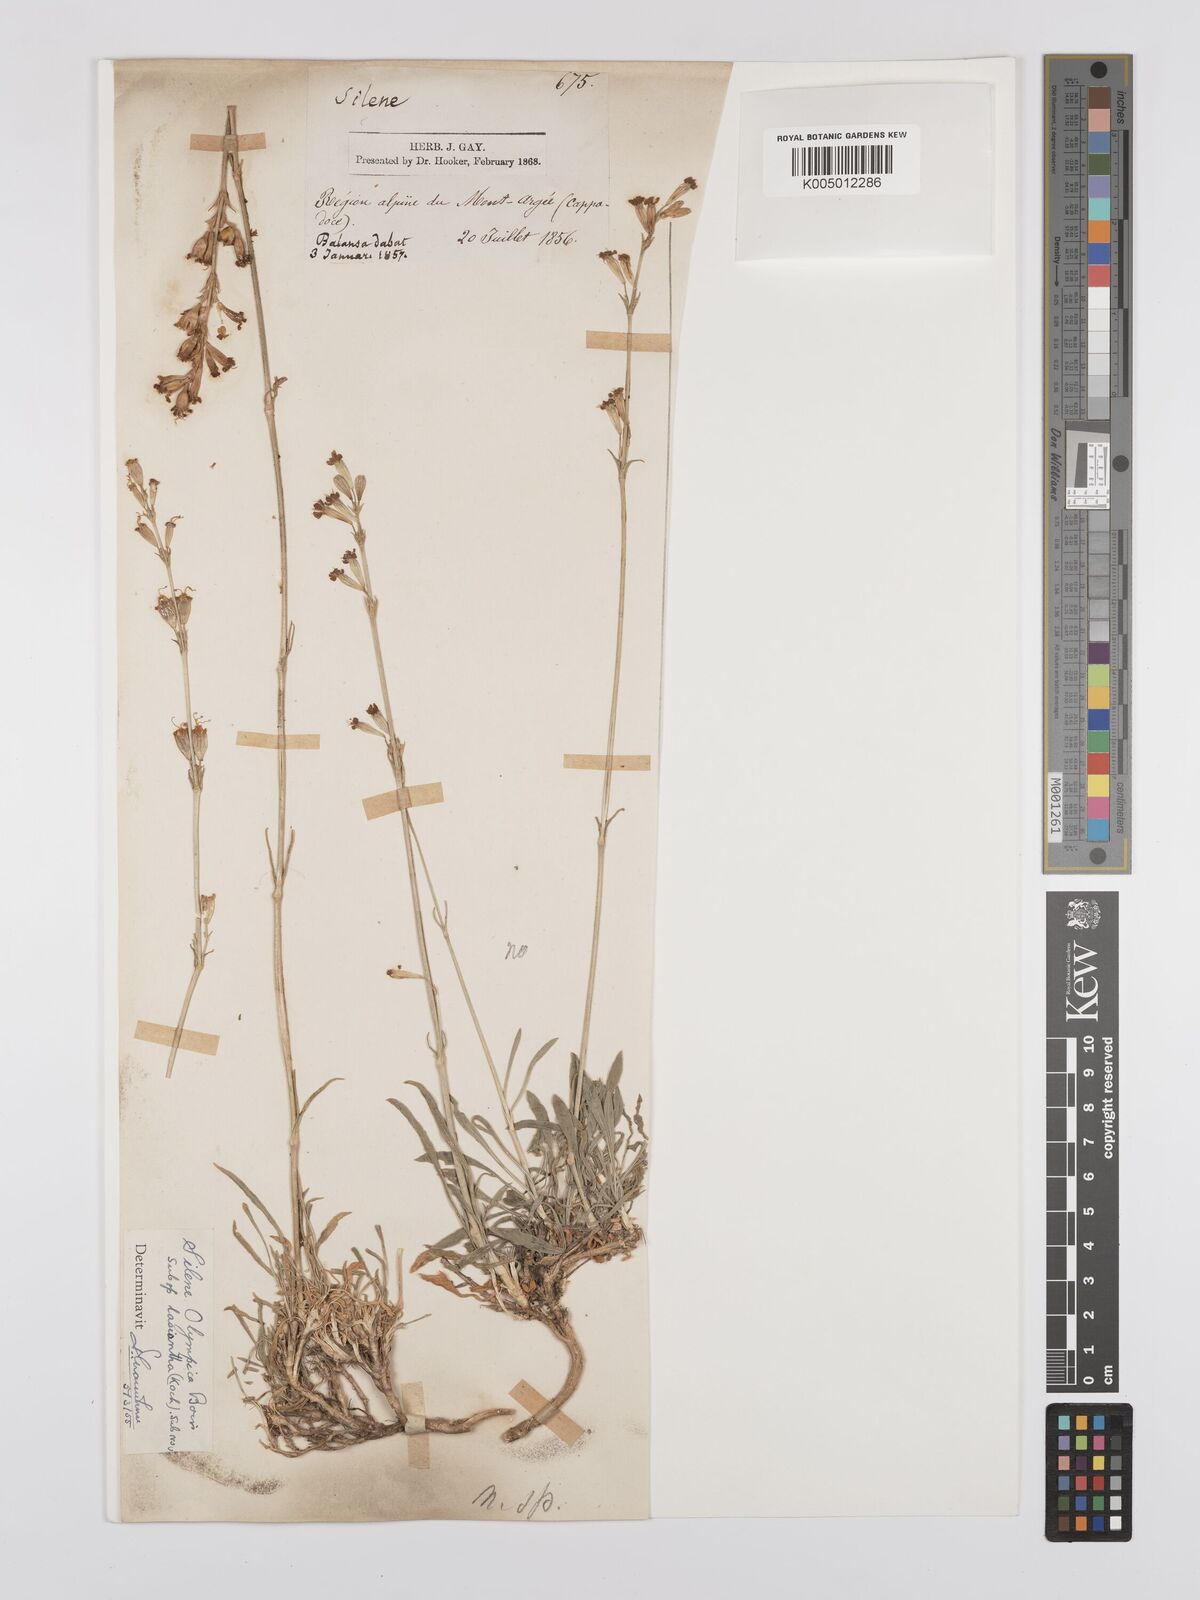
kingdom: Plantae
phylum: Tracheophyta
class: Magnoliopsida
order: Caryophyllales
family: Caryophyllaceae
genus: Silene
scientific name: Silene
